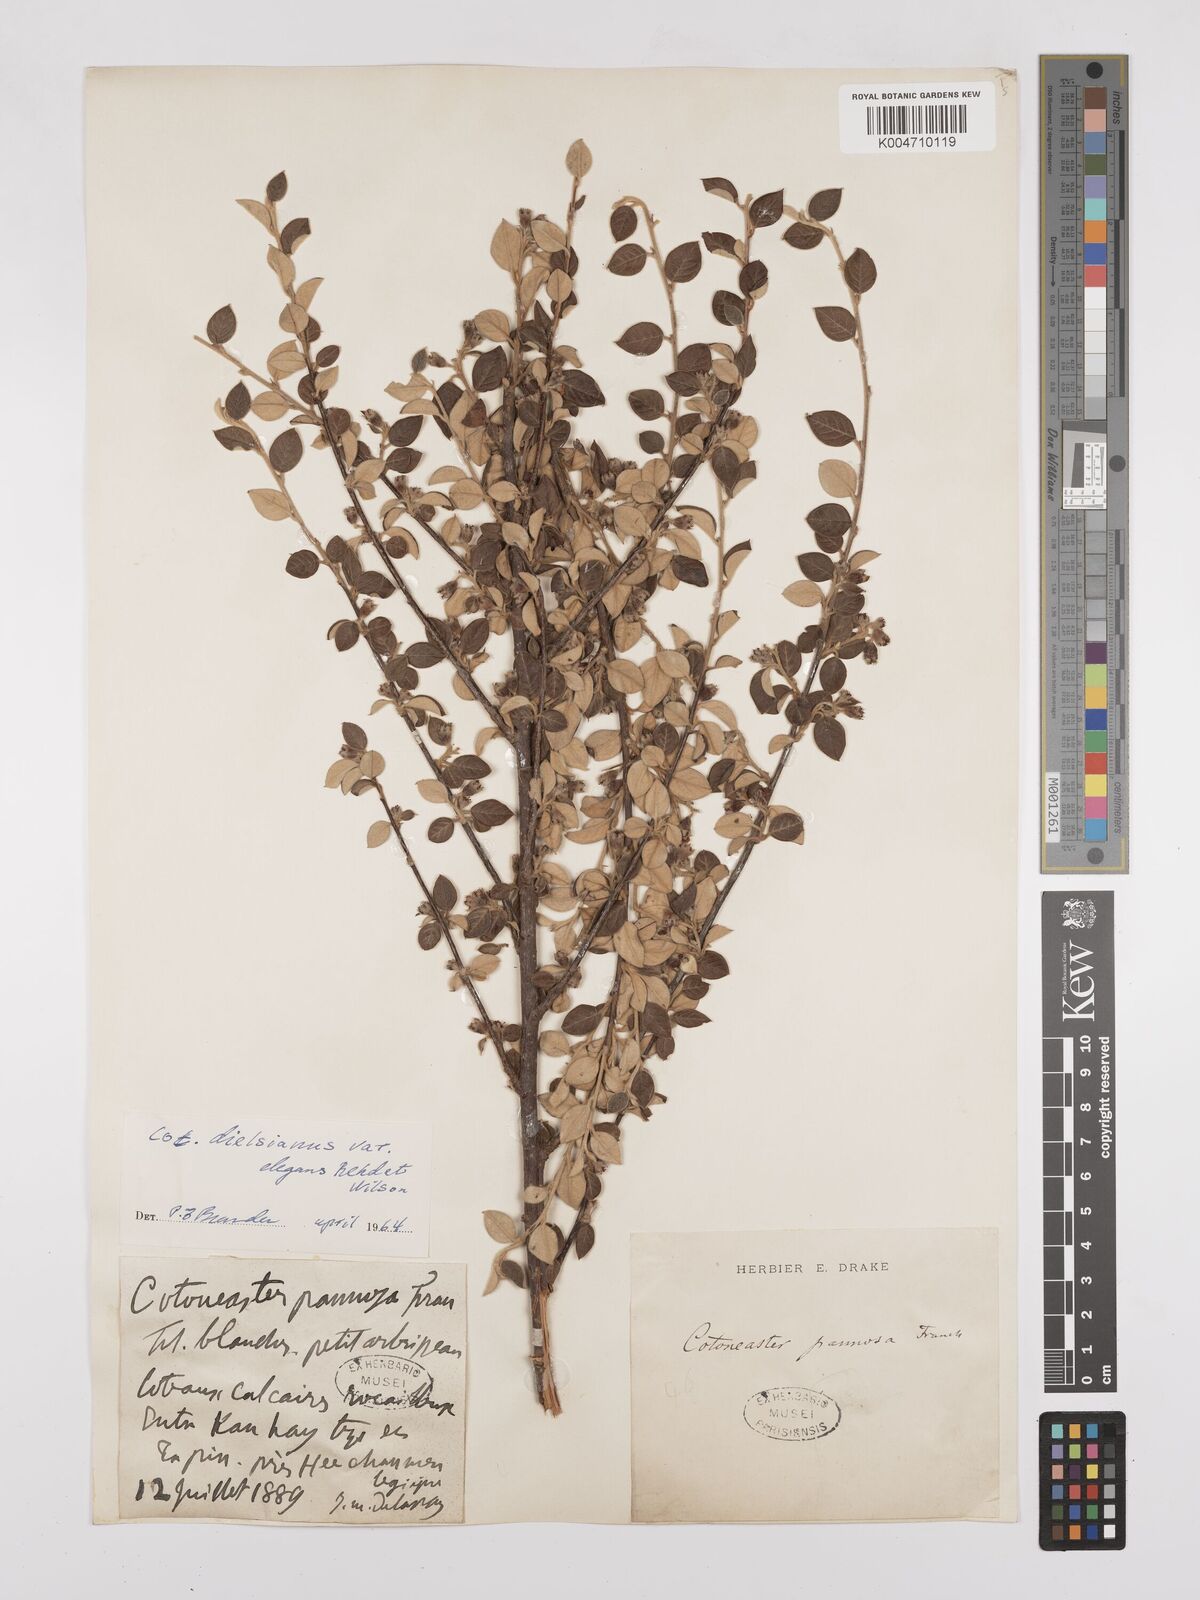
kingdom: Plantae
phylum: Tracheophyta
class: Magnoliopsida
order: Rosales
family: Rosaceae
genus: Cotoneaster
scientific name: Cotoneaster dielsianus
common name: Diels's cotoneaster
